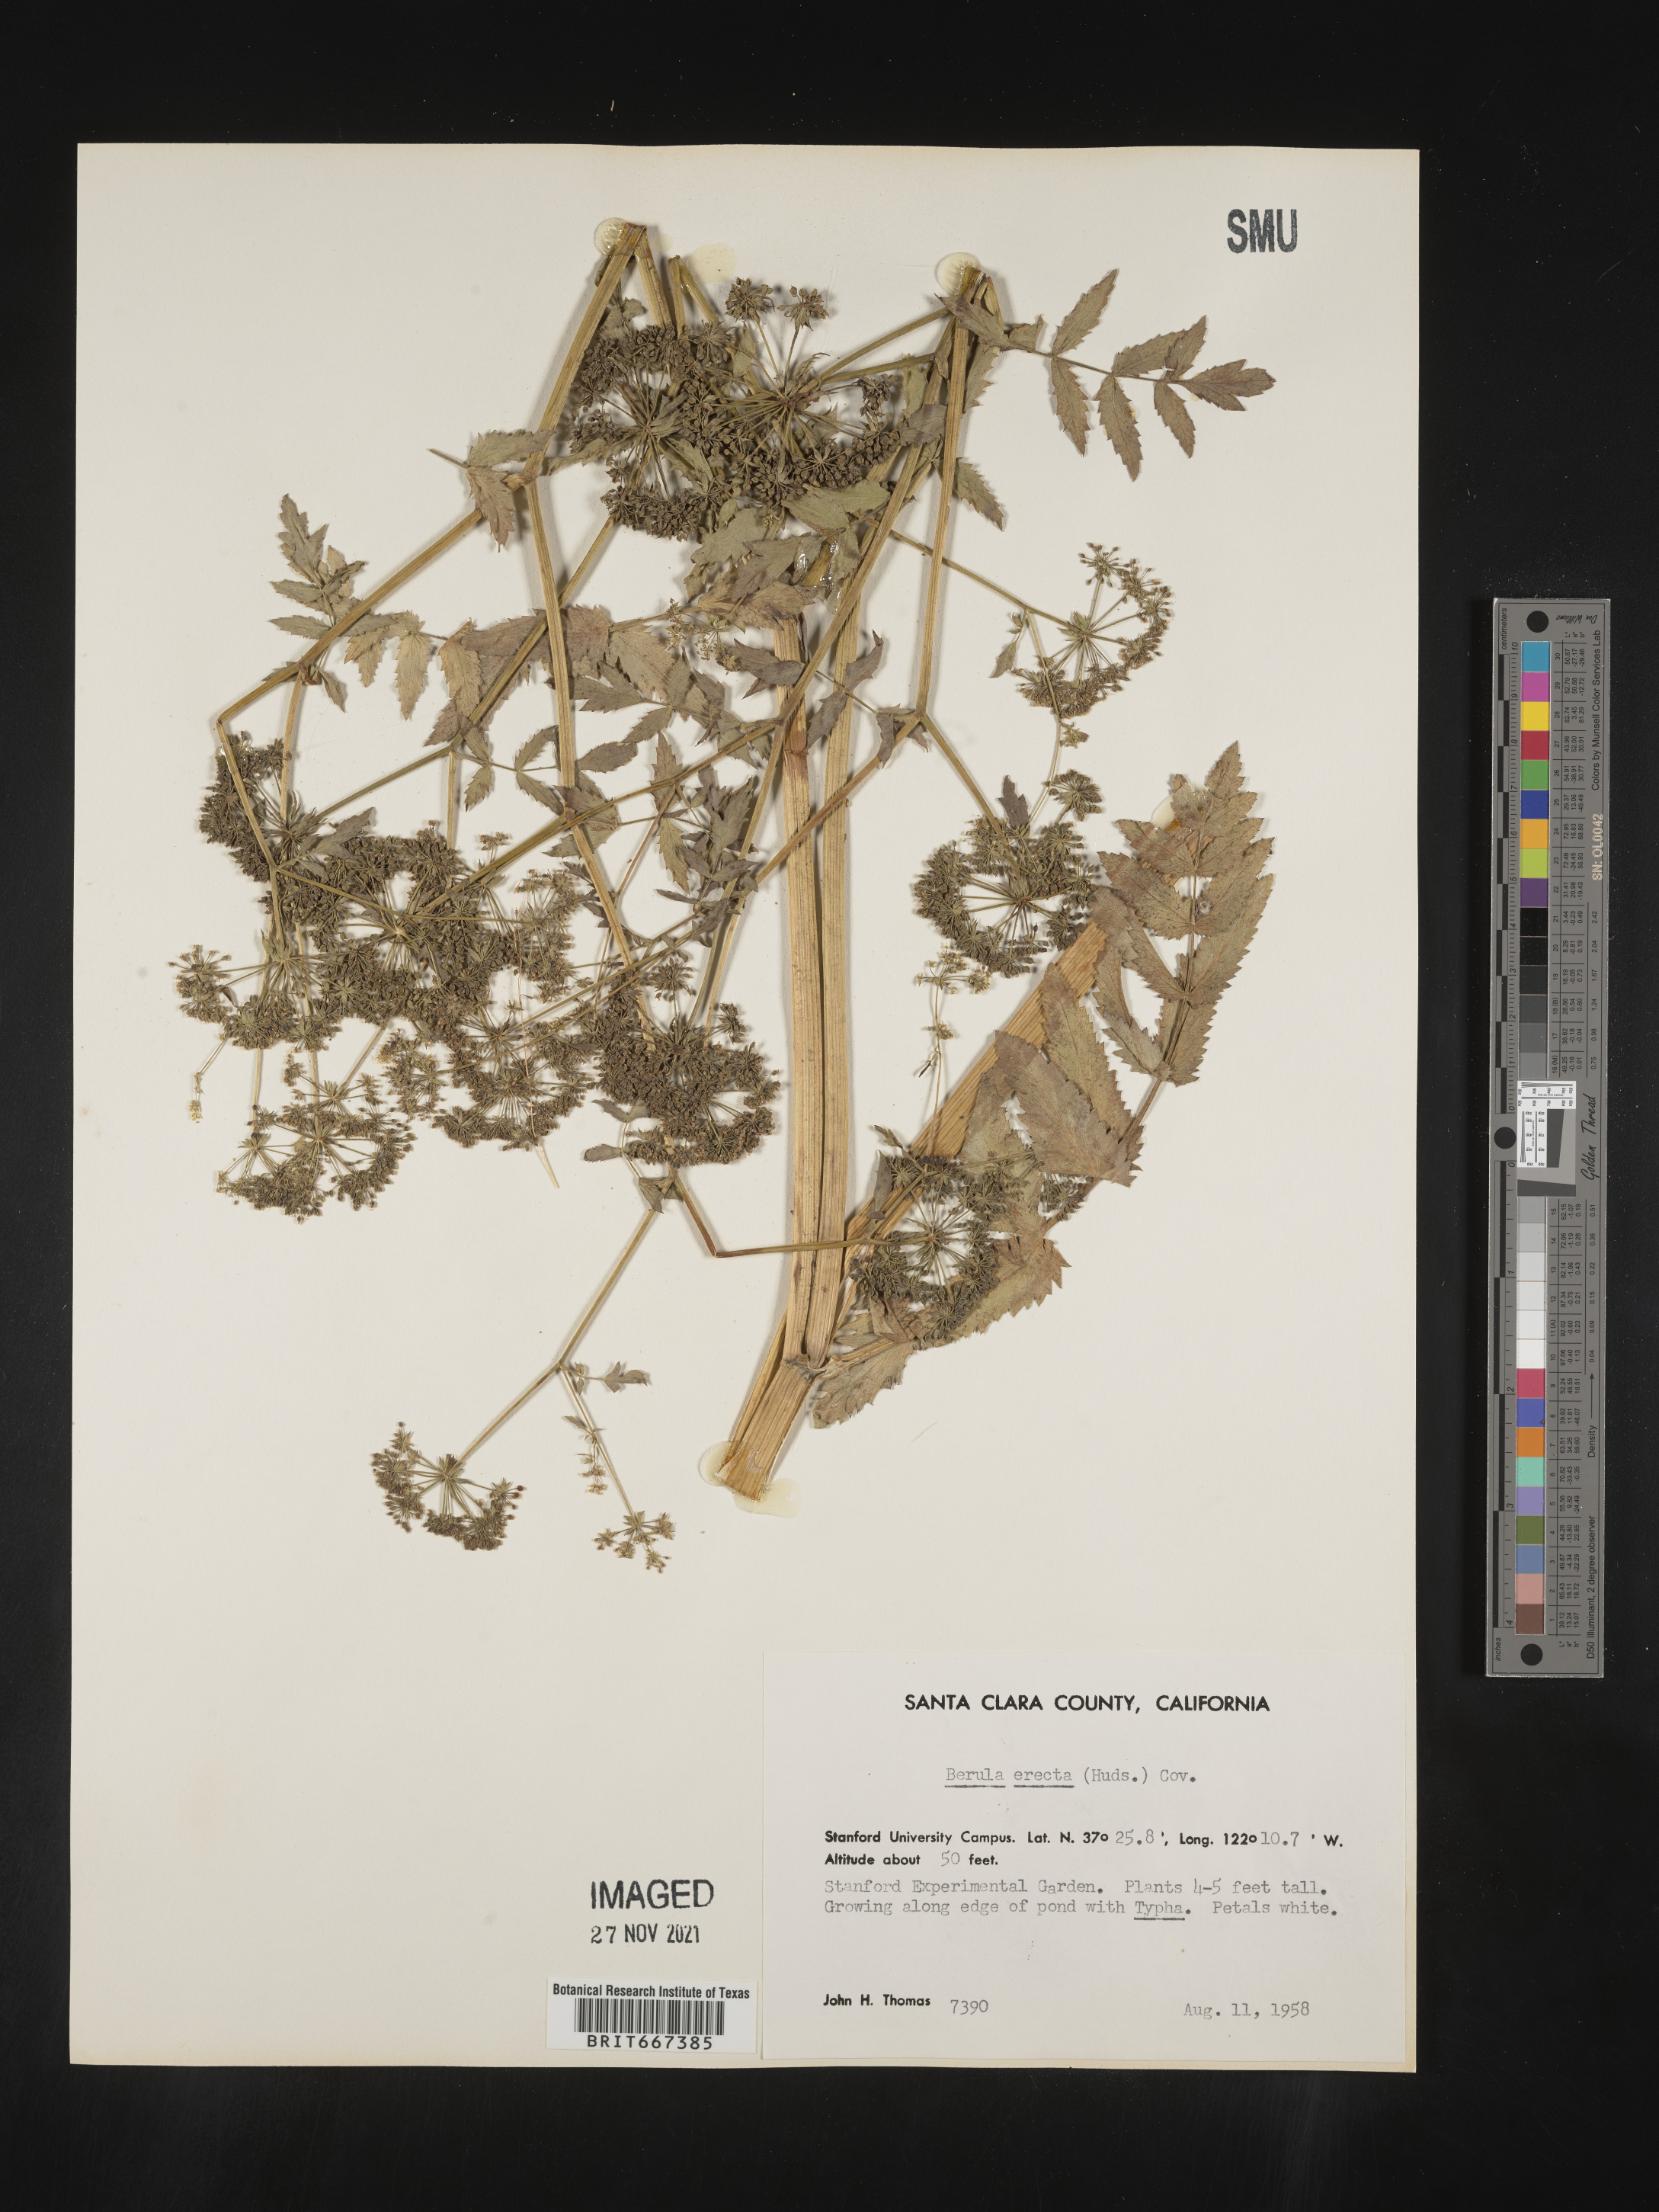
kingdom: Plantae
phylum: Tracheophyta
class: Magnoliopsida
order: Apiales
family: Apiaceae
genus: Berula
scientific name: Berula
